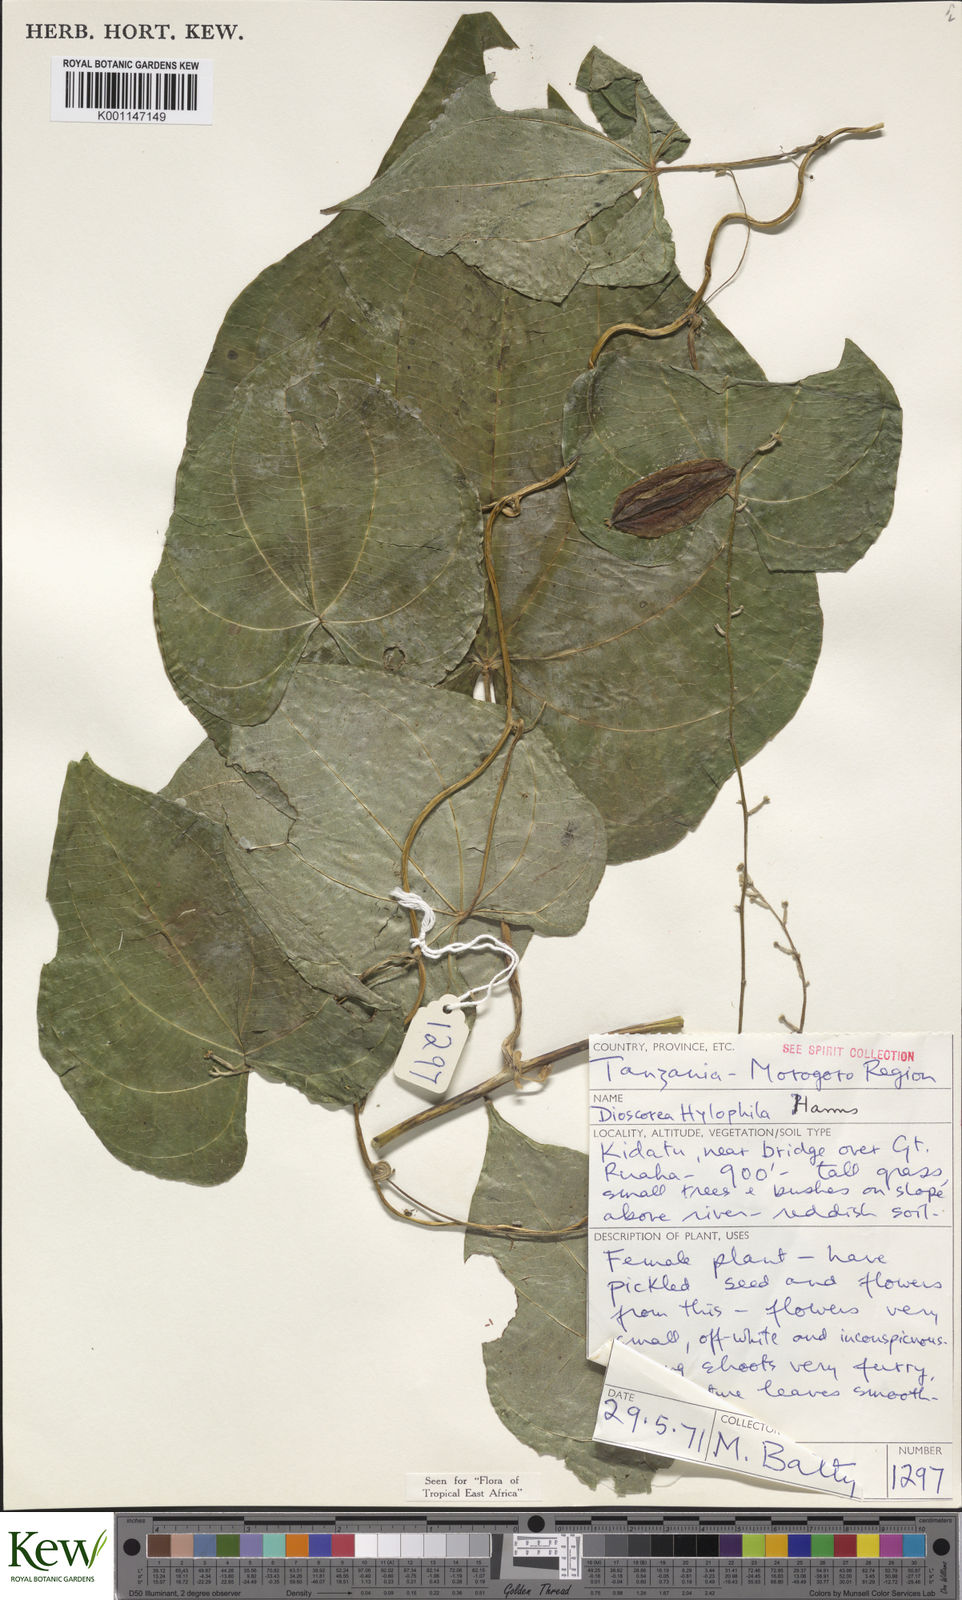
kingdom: Plantae
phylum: Tracheophyta
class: Liliopsida
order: Dioscoreales
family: Dioscoreaceae
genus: Dioscorea
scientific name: Dioscorea
